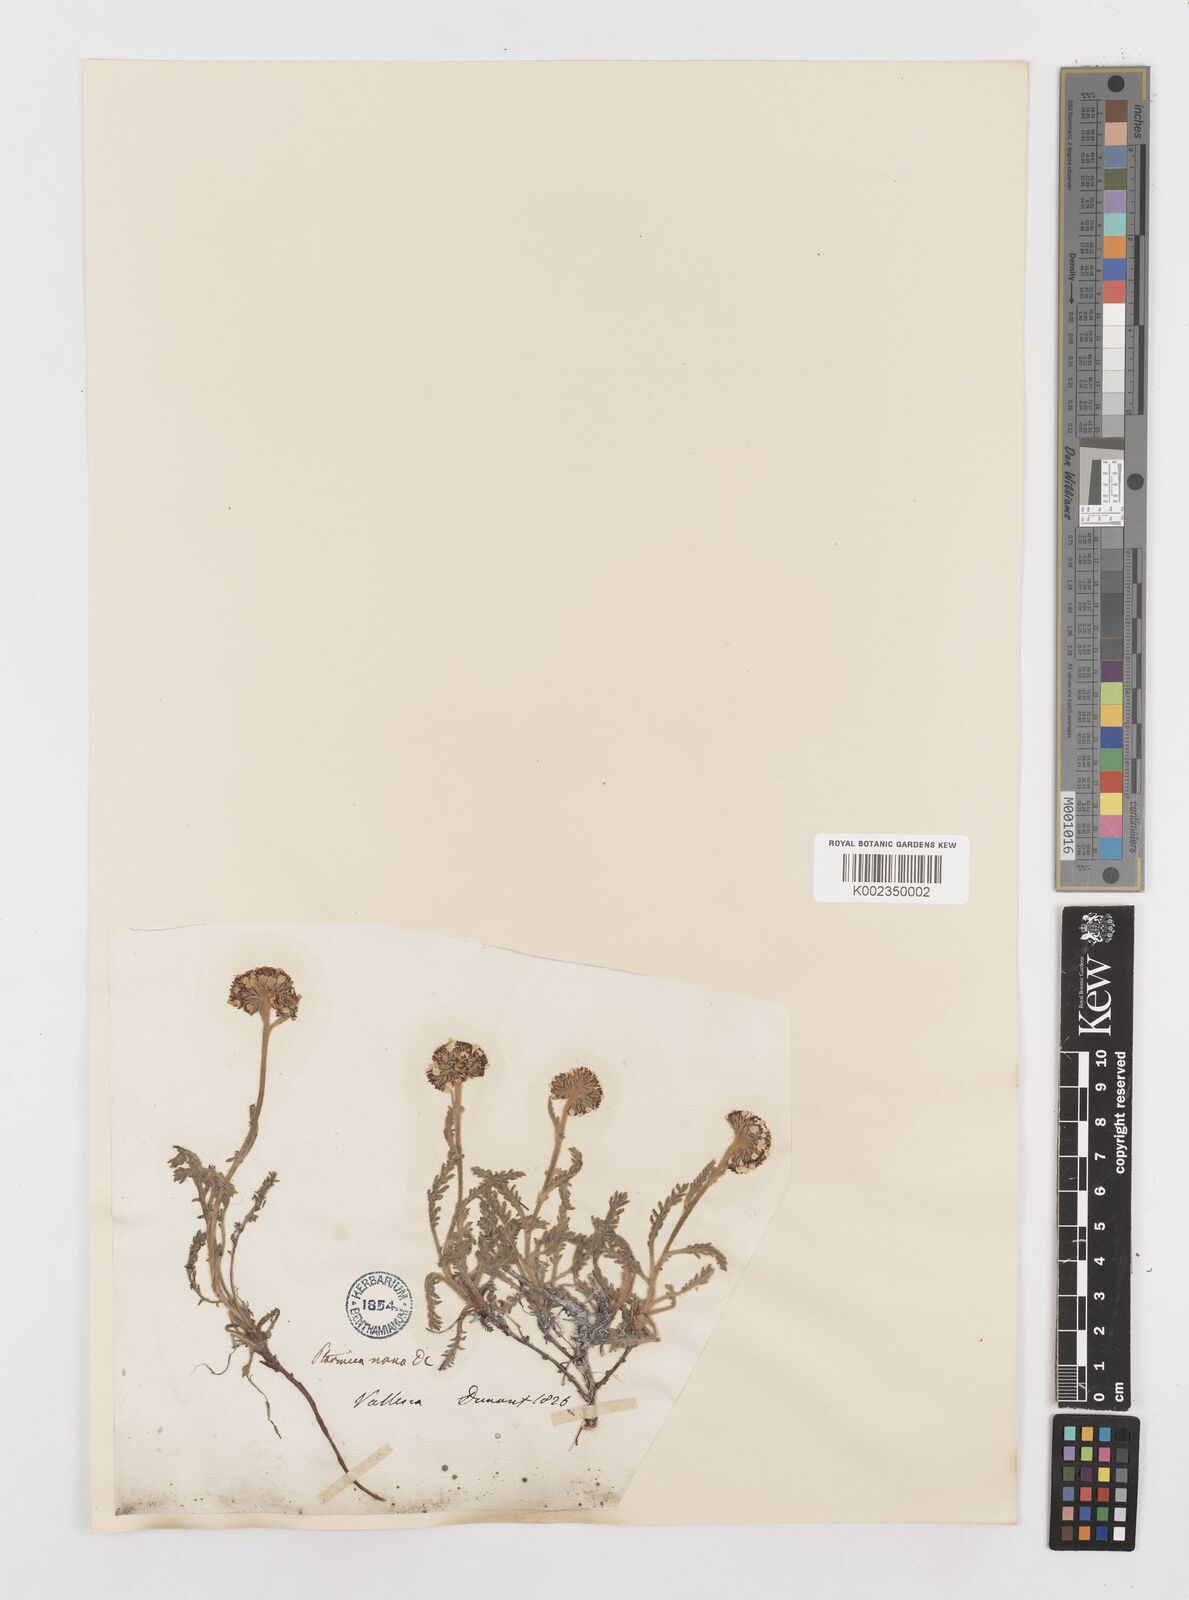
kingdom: Plantae
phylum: Tracheophyta
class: Magnoliopsida
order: Asterales
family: Asteraceae
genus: Achillea
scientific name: Achillea nana
